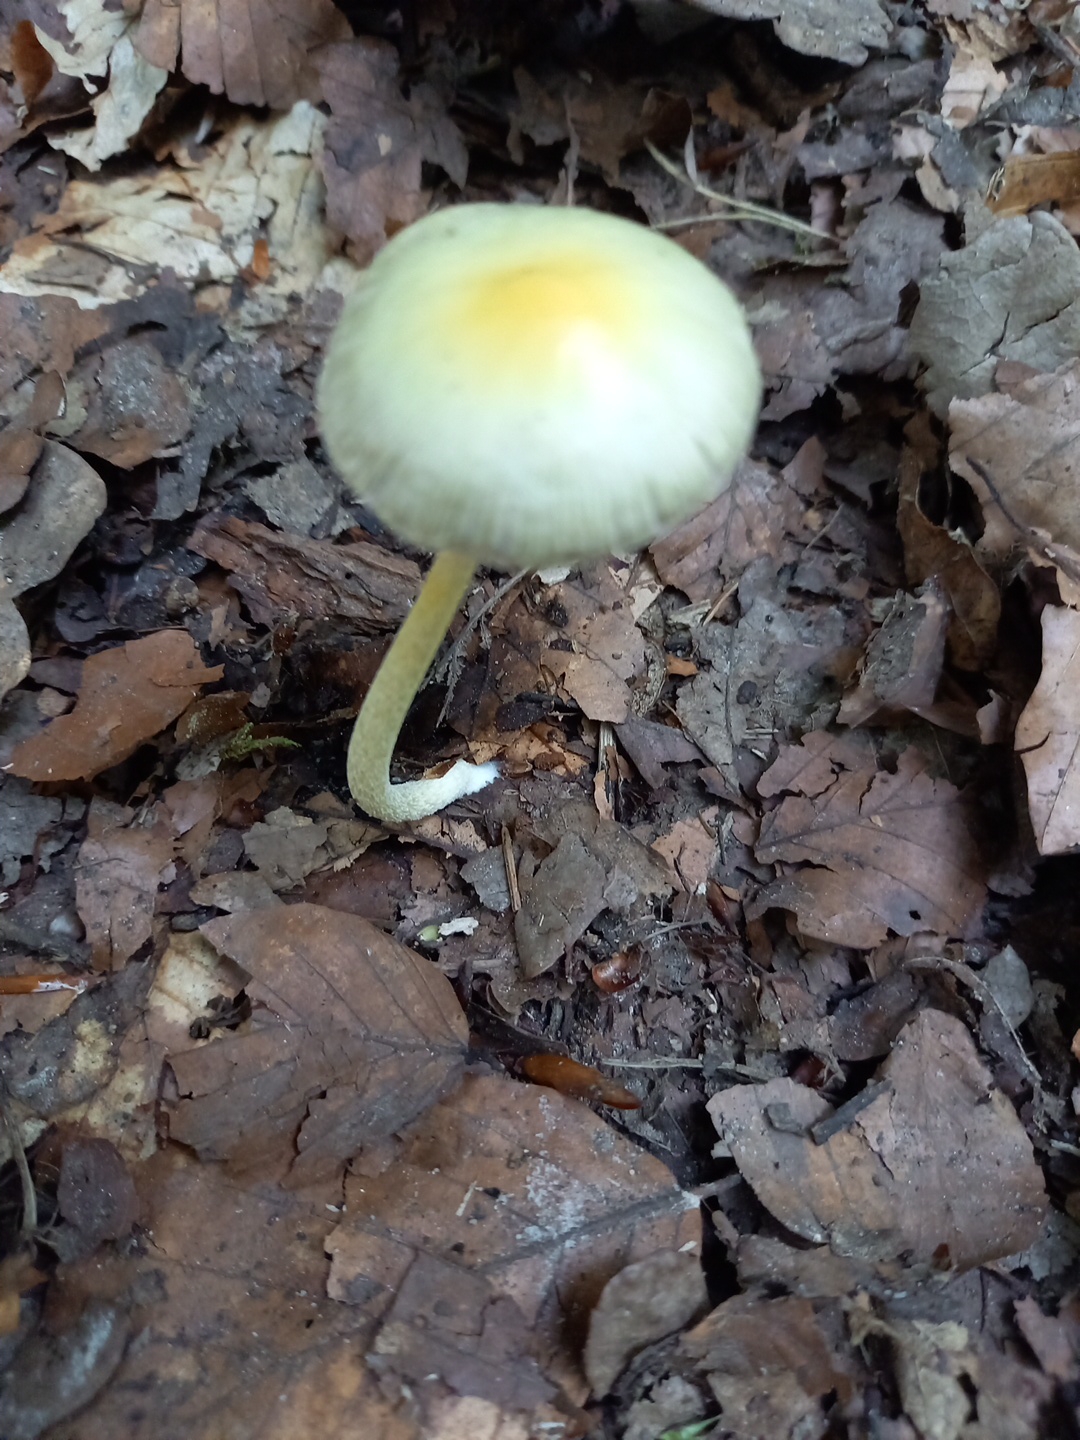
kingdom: Fungi
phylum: Basidiomycota
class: Agaricomycetes
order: Agaricales
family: Bolbitiaceae
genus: Bolbitius
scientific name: Bolbitius titubans
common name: almindelig gulhat
